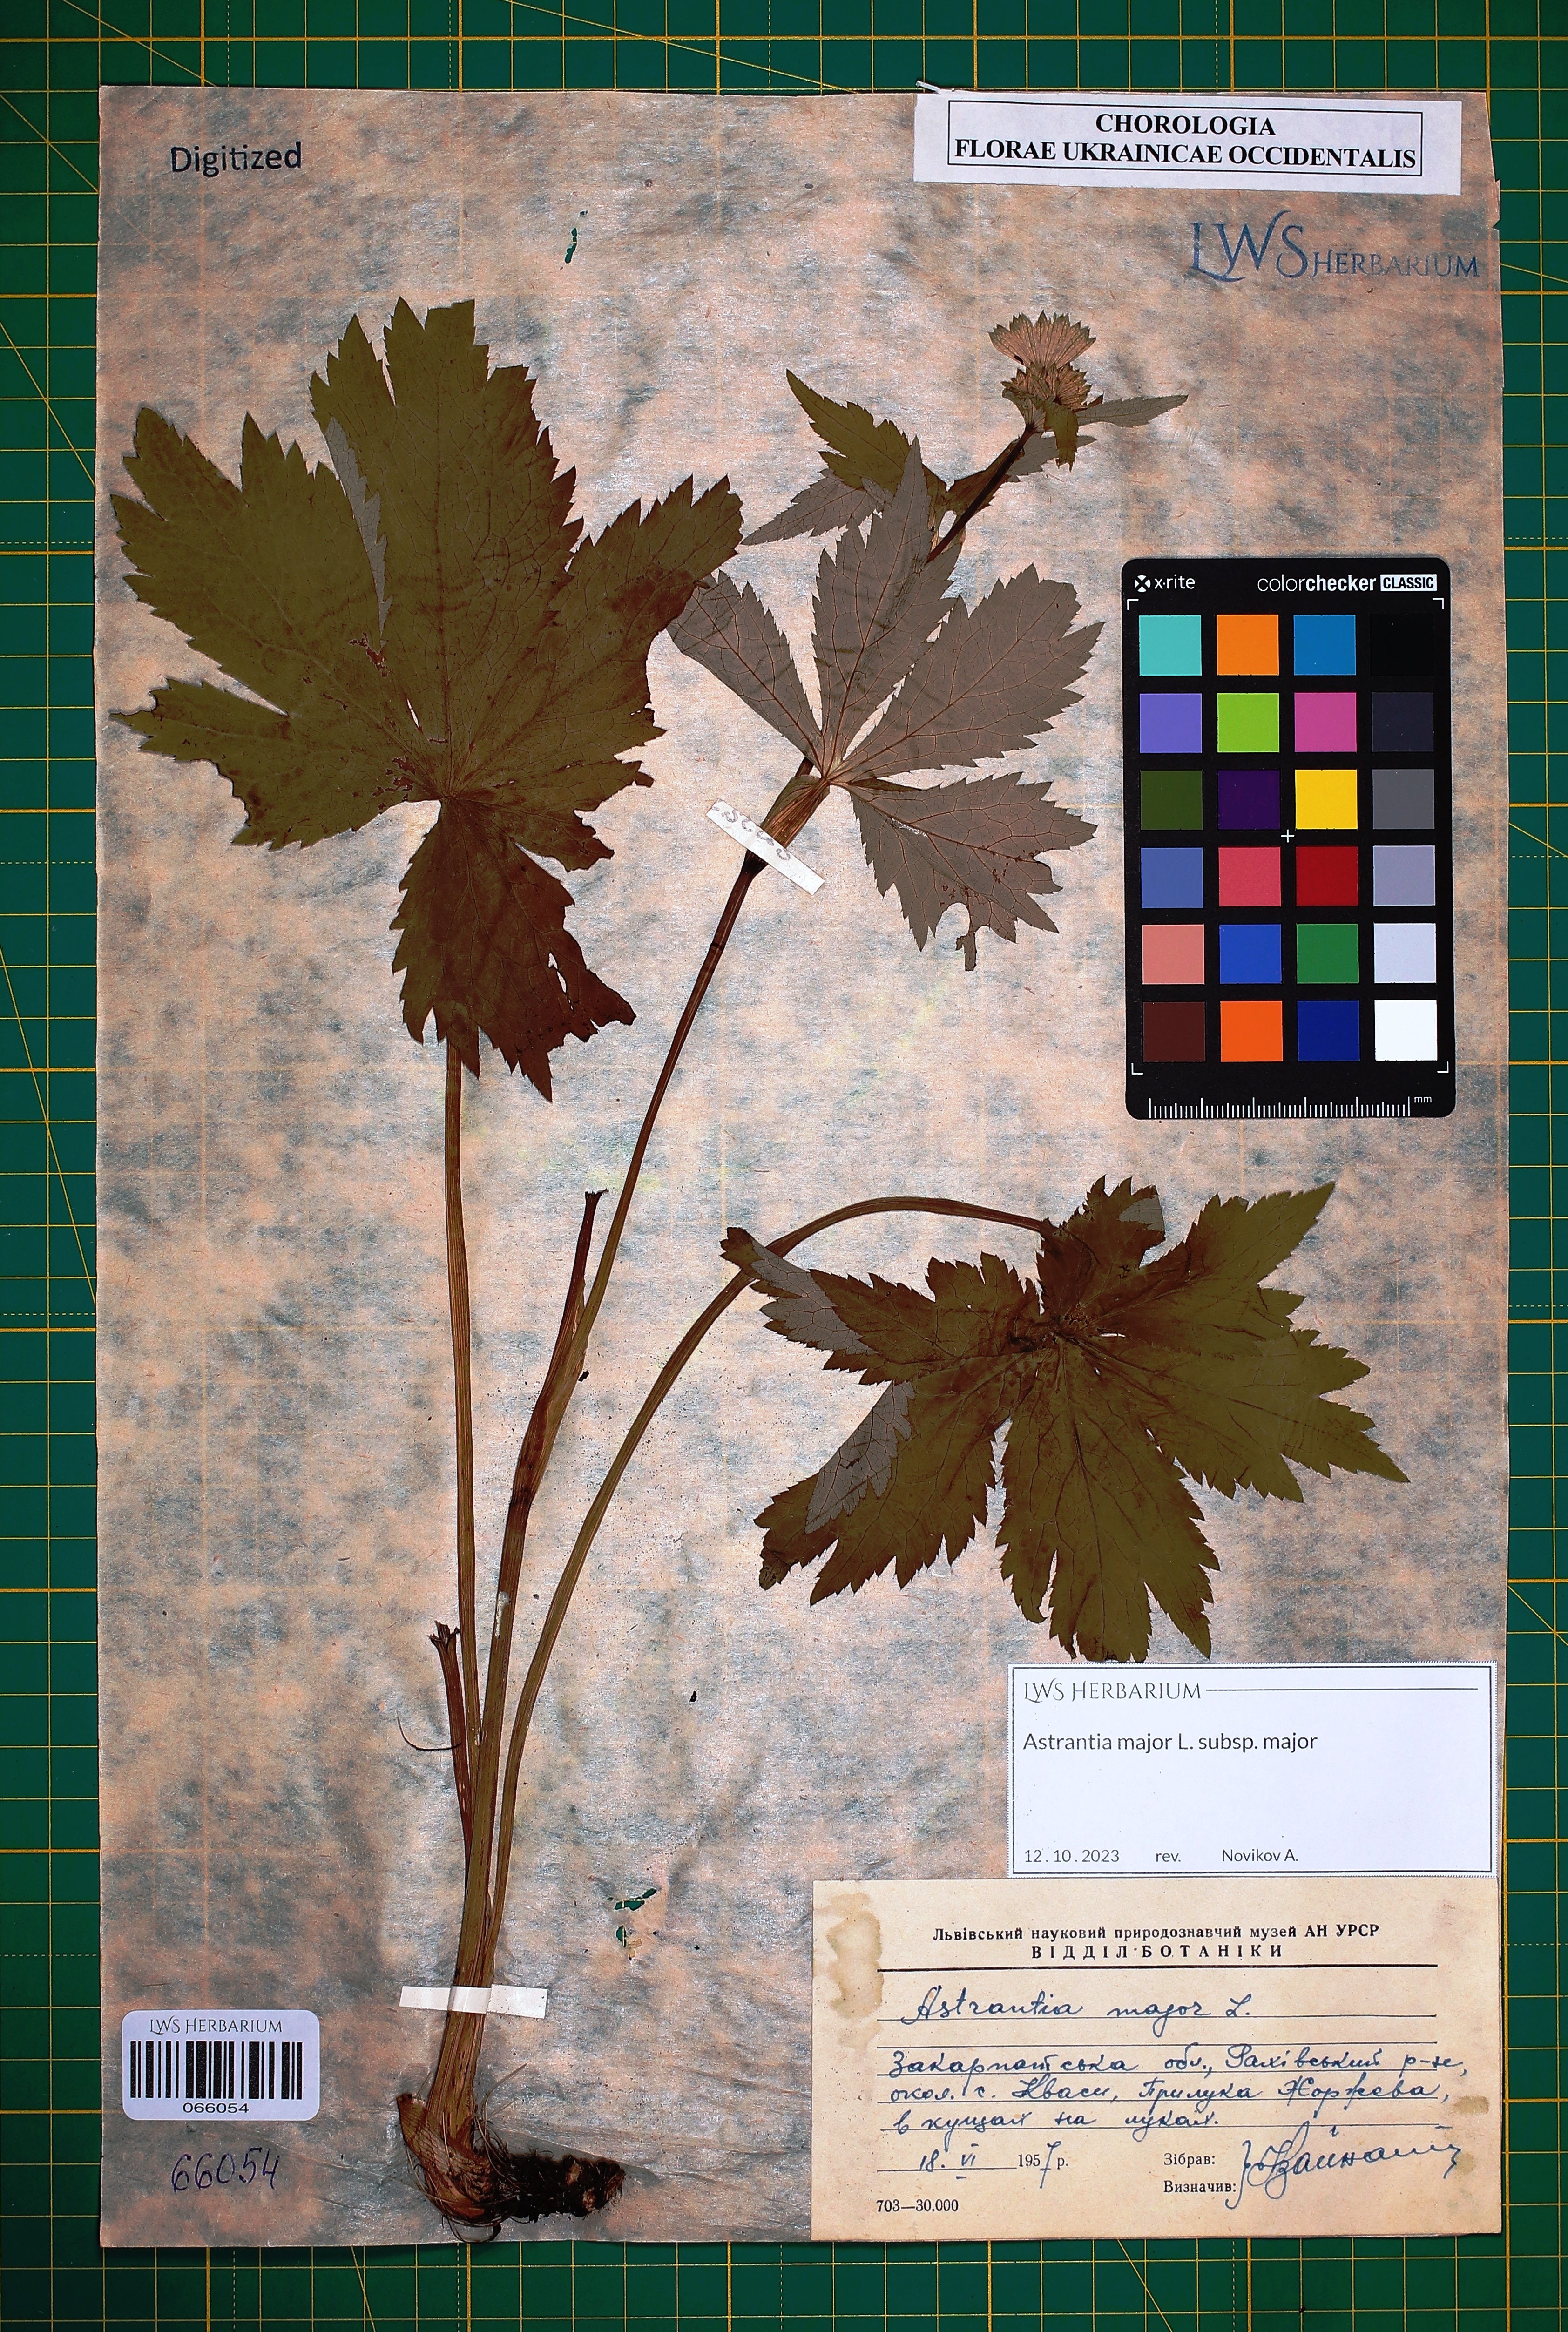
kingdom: Plantae
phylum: Tracheophyta
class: Magnoliopsida
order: Apiales
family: Apiaceae
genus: Astrantia
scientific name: Astrantia major
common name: Greater masterwort
